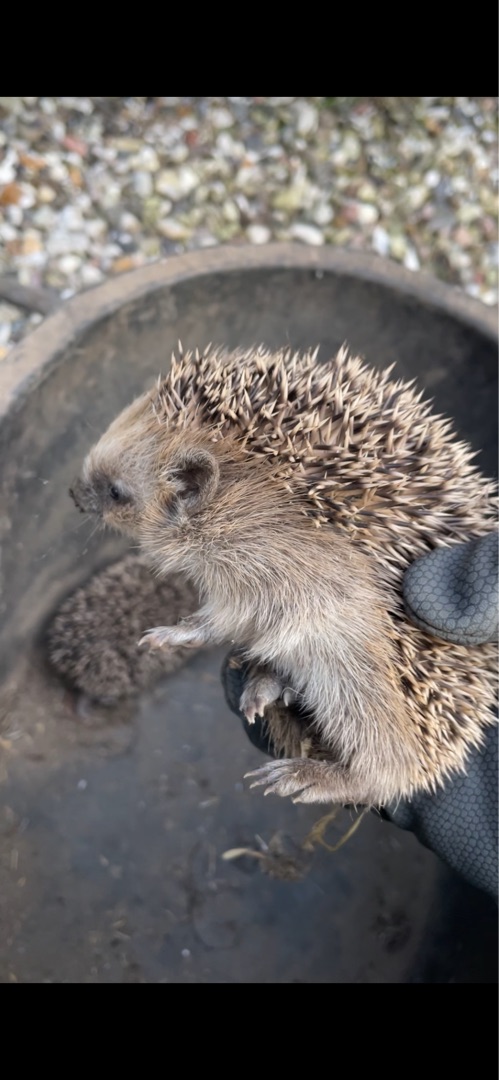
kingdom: Animalia
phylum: Chordata
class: Mammalia
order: Erinaceomorpha
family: Erinaceidae
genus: Erinaceus
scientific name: Erinaceus europaeus
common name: Pindsvin
